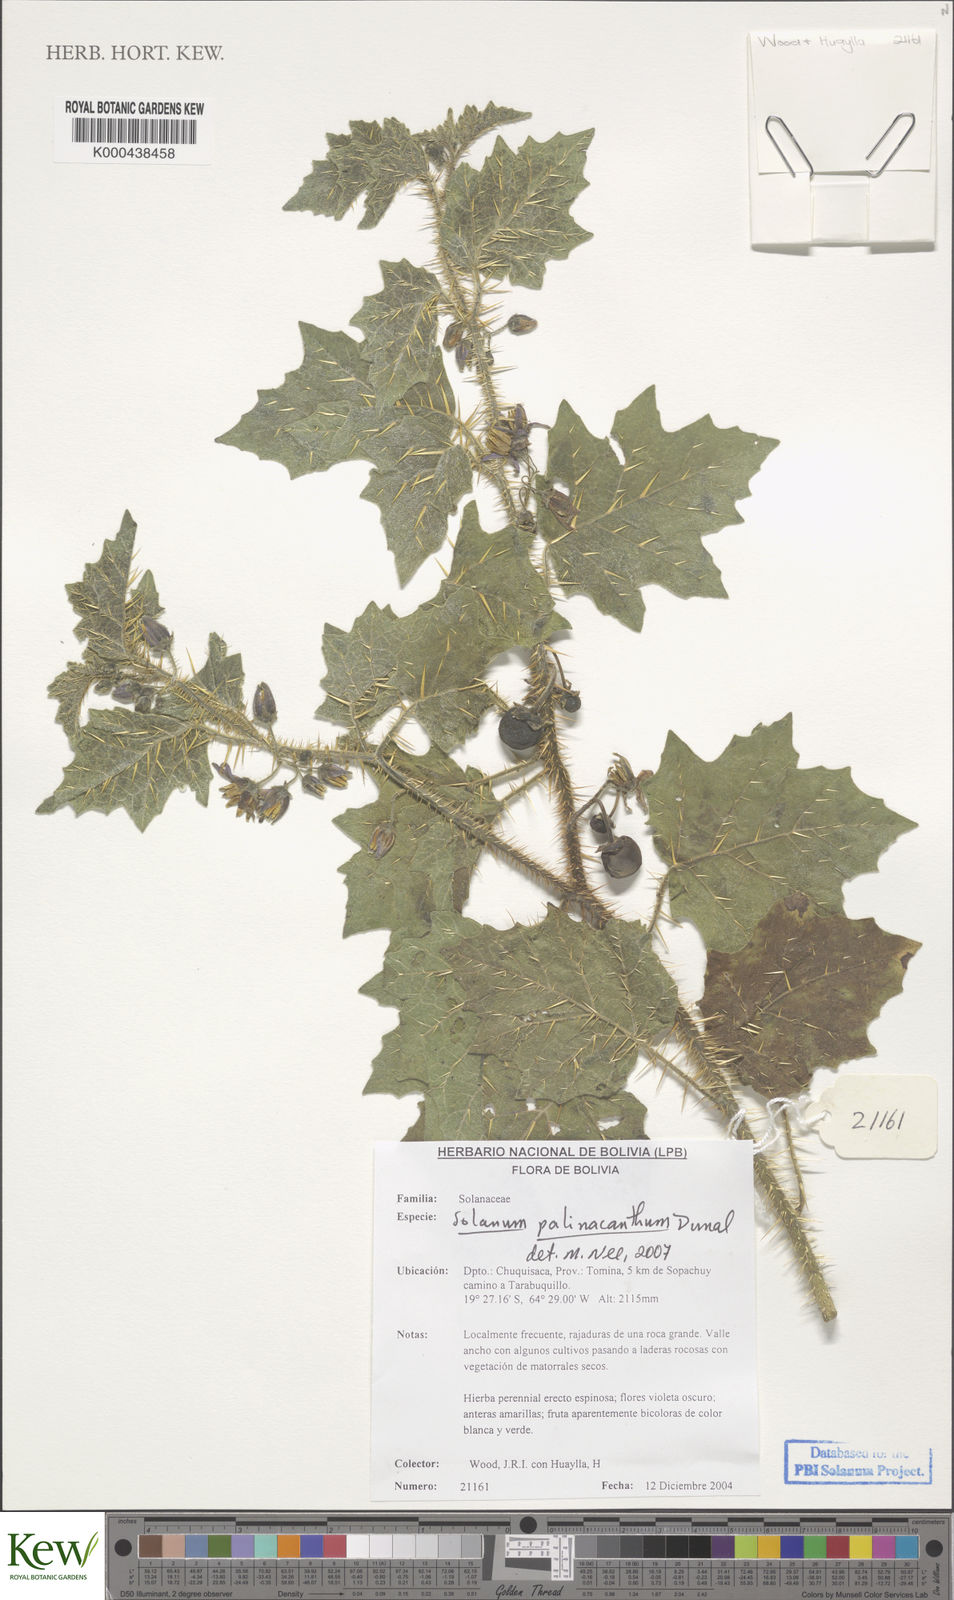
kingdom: Plantae
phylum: Tracheophyta
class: Magnoliopsida
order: Solanales
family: Solanaceae
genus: Solanum
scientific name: Solanum palinacanthum
